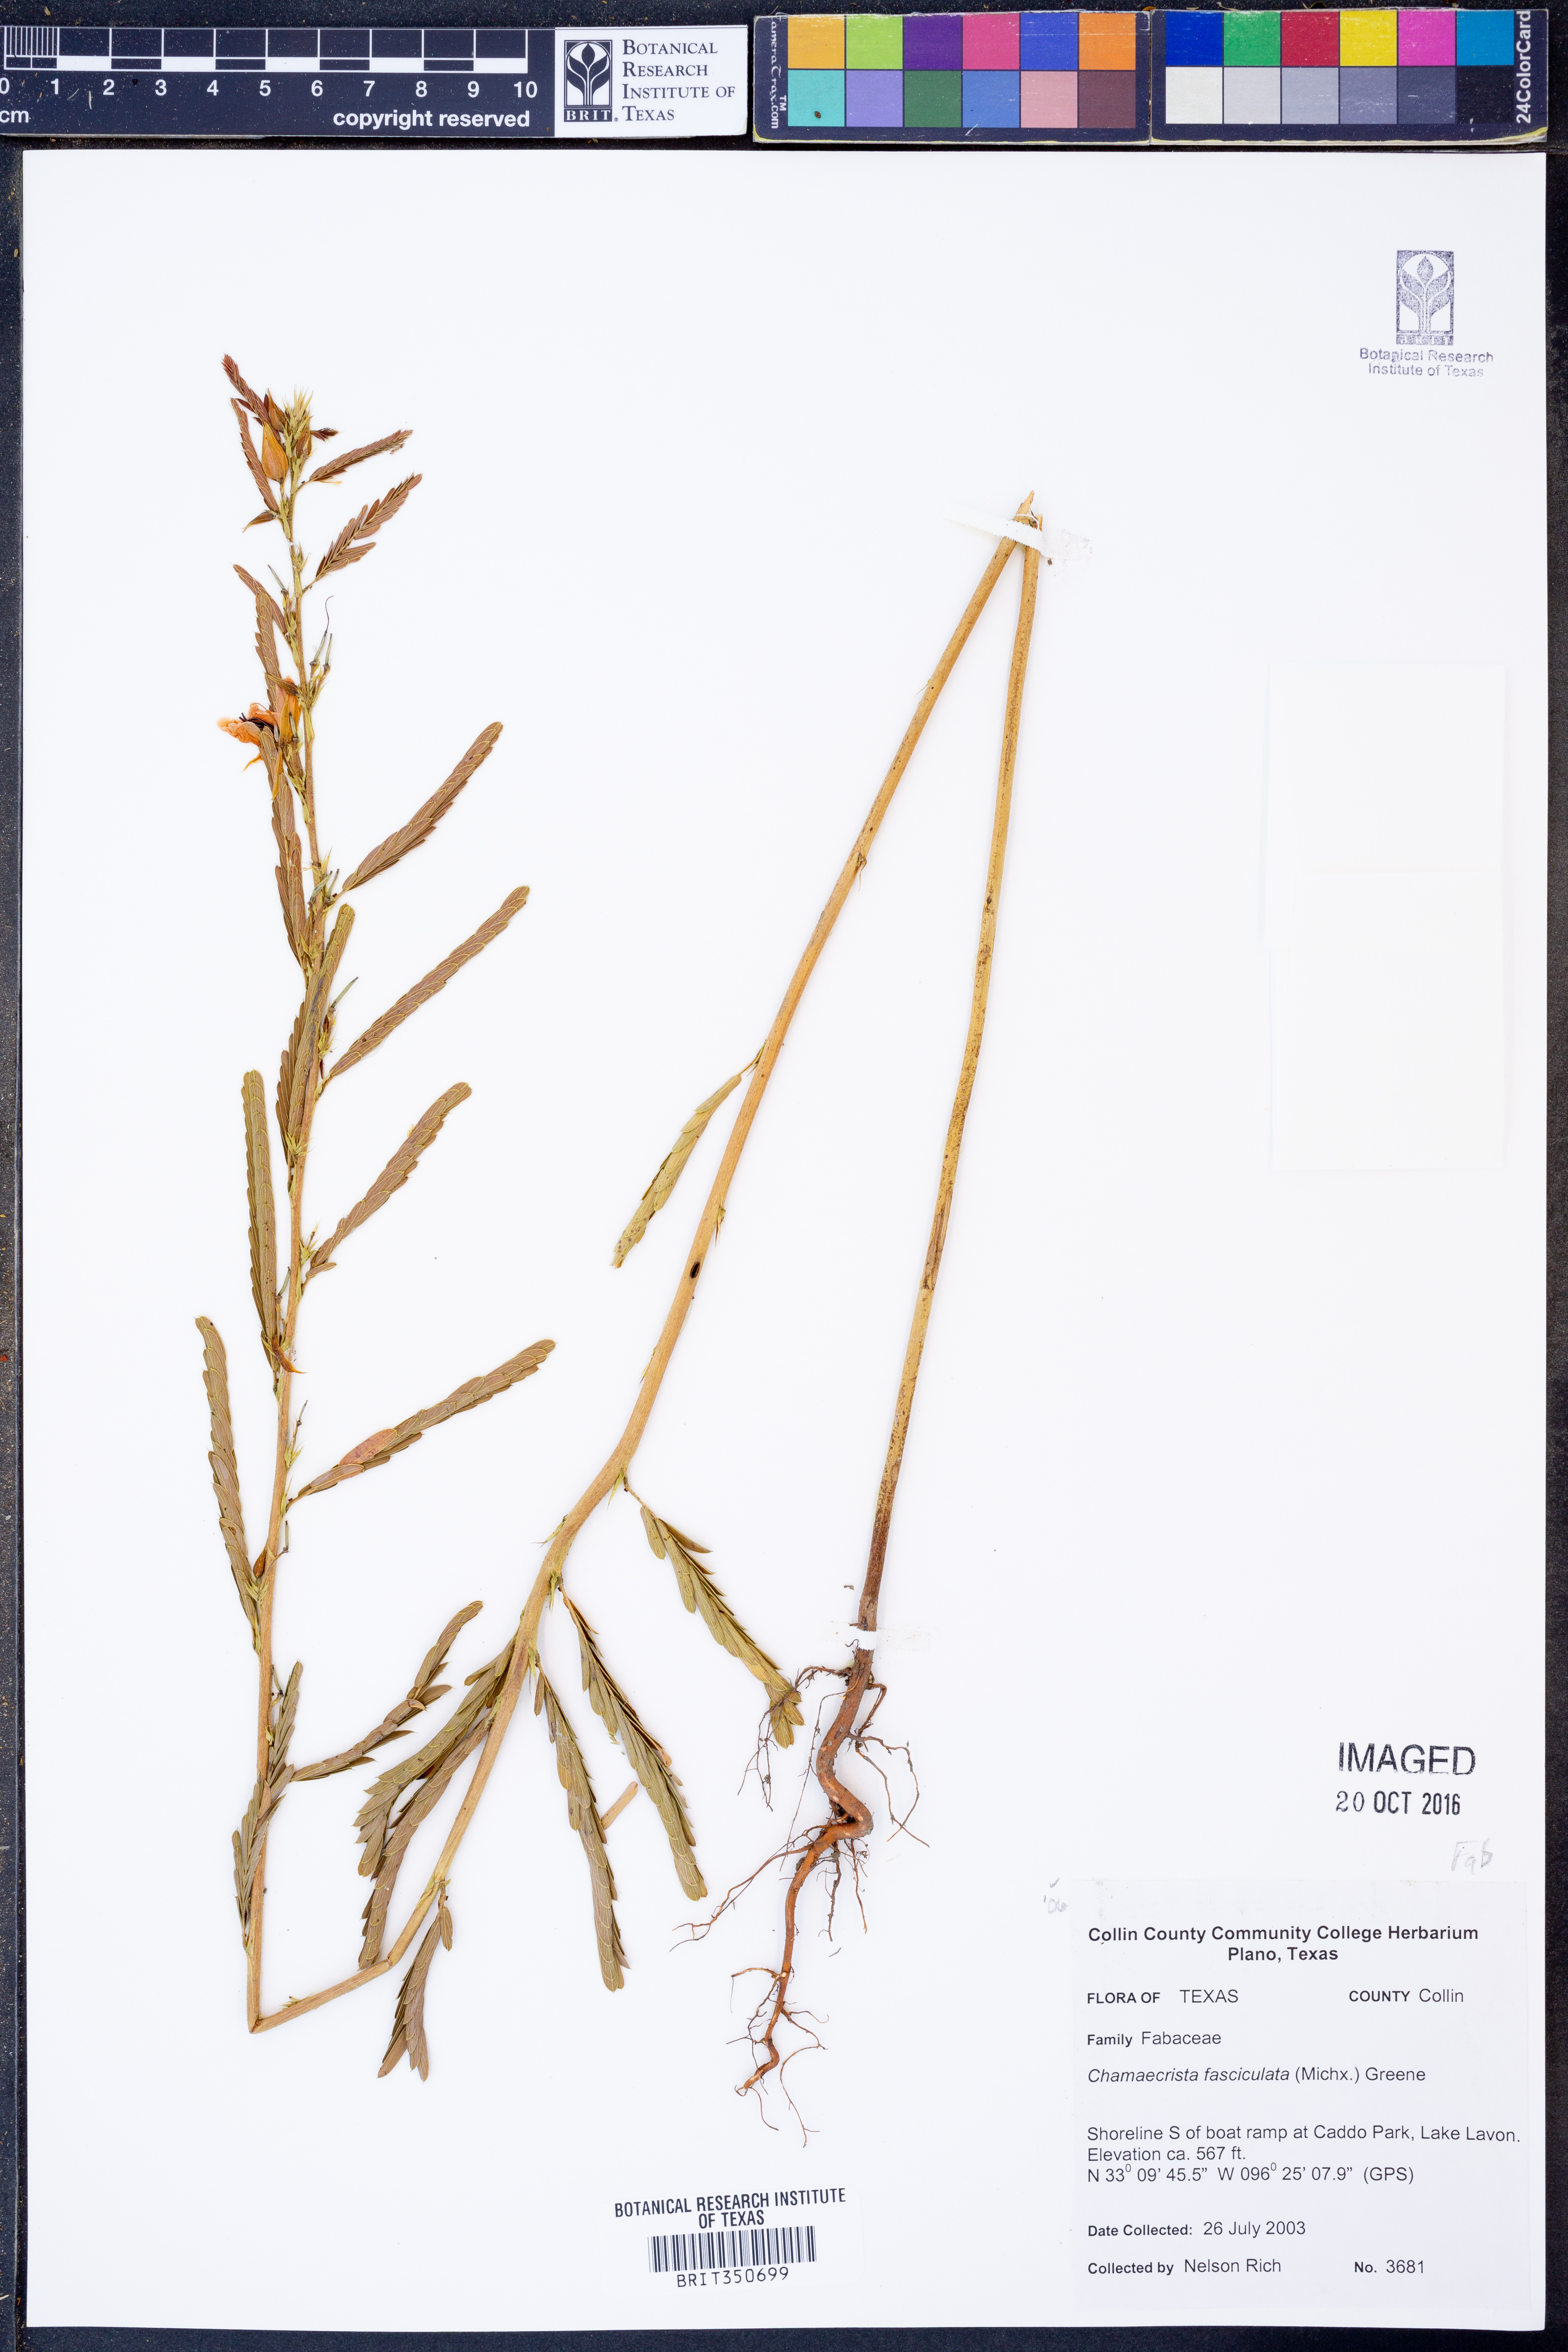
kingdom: Plantae
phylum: Tracheophyta
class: Magnoliopsida
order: Fabales
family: Fabaceae
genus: Chamaecrista
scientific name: Chamaecrista fasciculata
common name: Golden cassia
